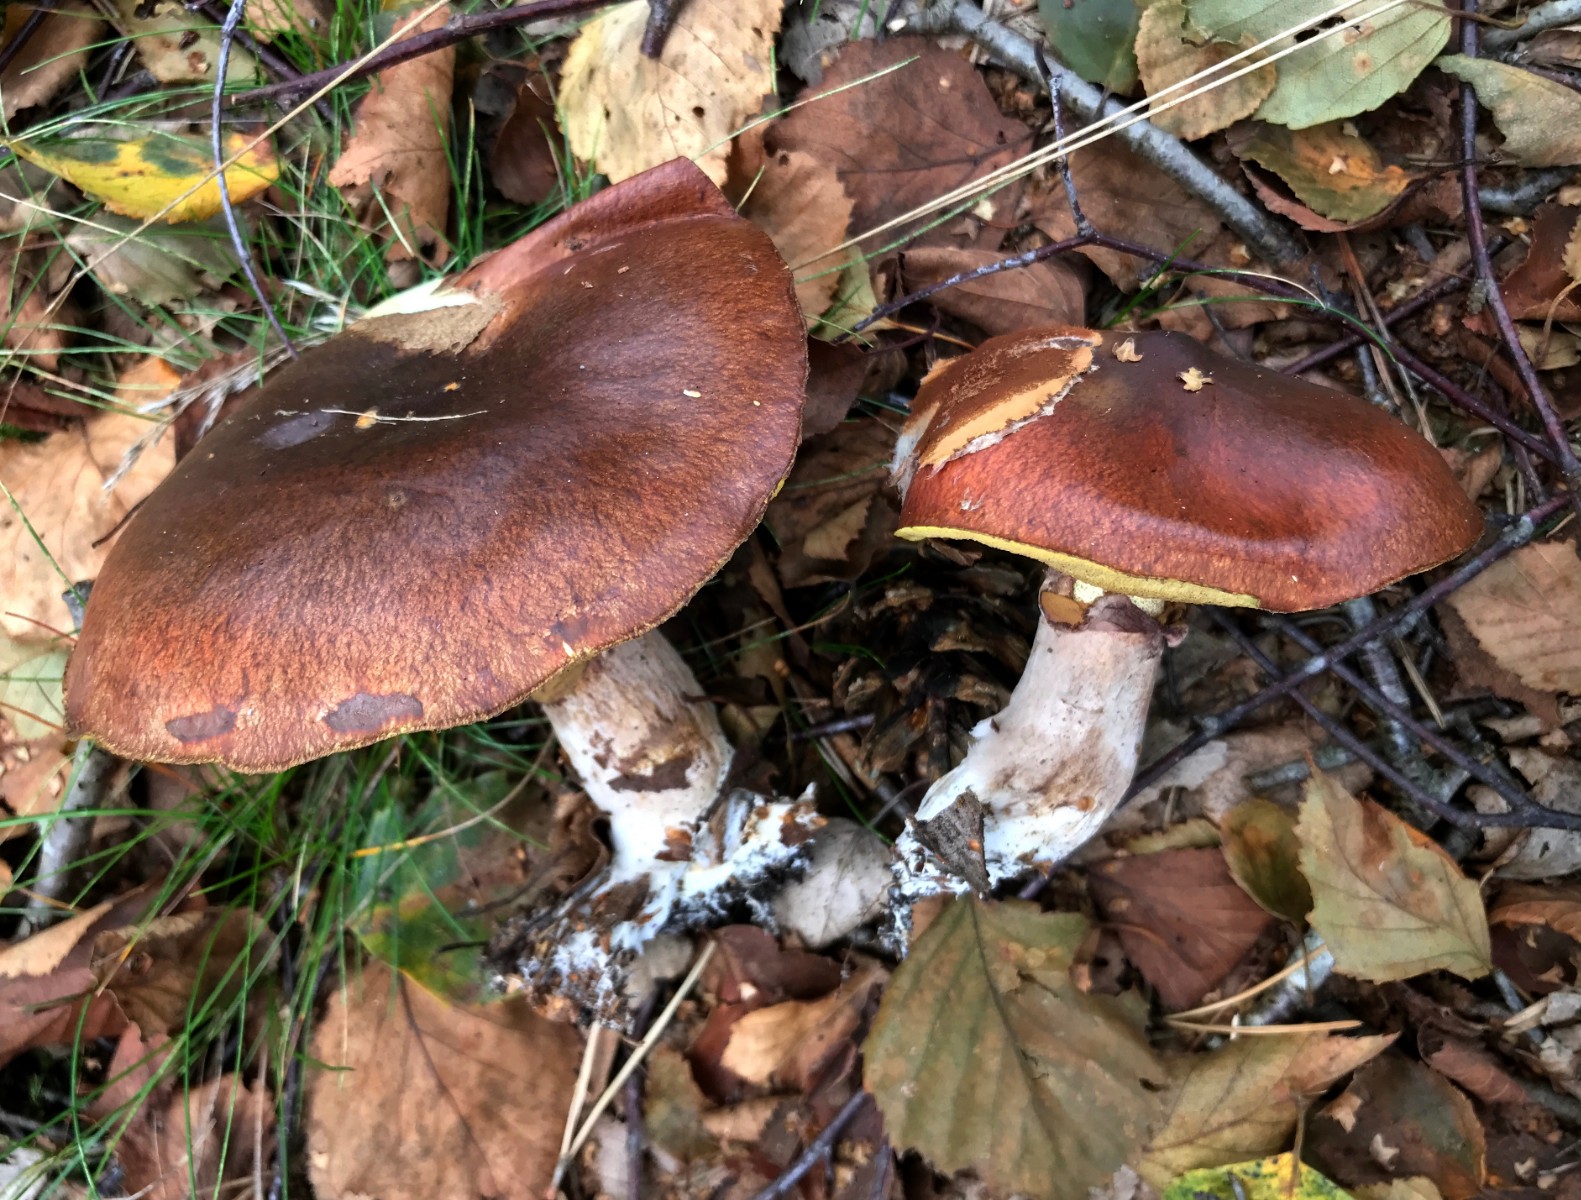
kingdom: Fungi
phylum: Basidiomycota
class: Agaricomycetes
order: Boletales
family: Suillaceae
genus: Suillus
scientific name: Suillus luteus
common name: brungul slimrørhat
